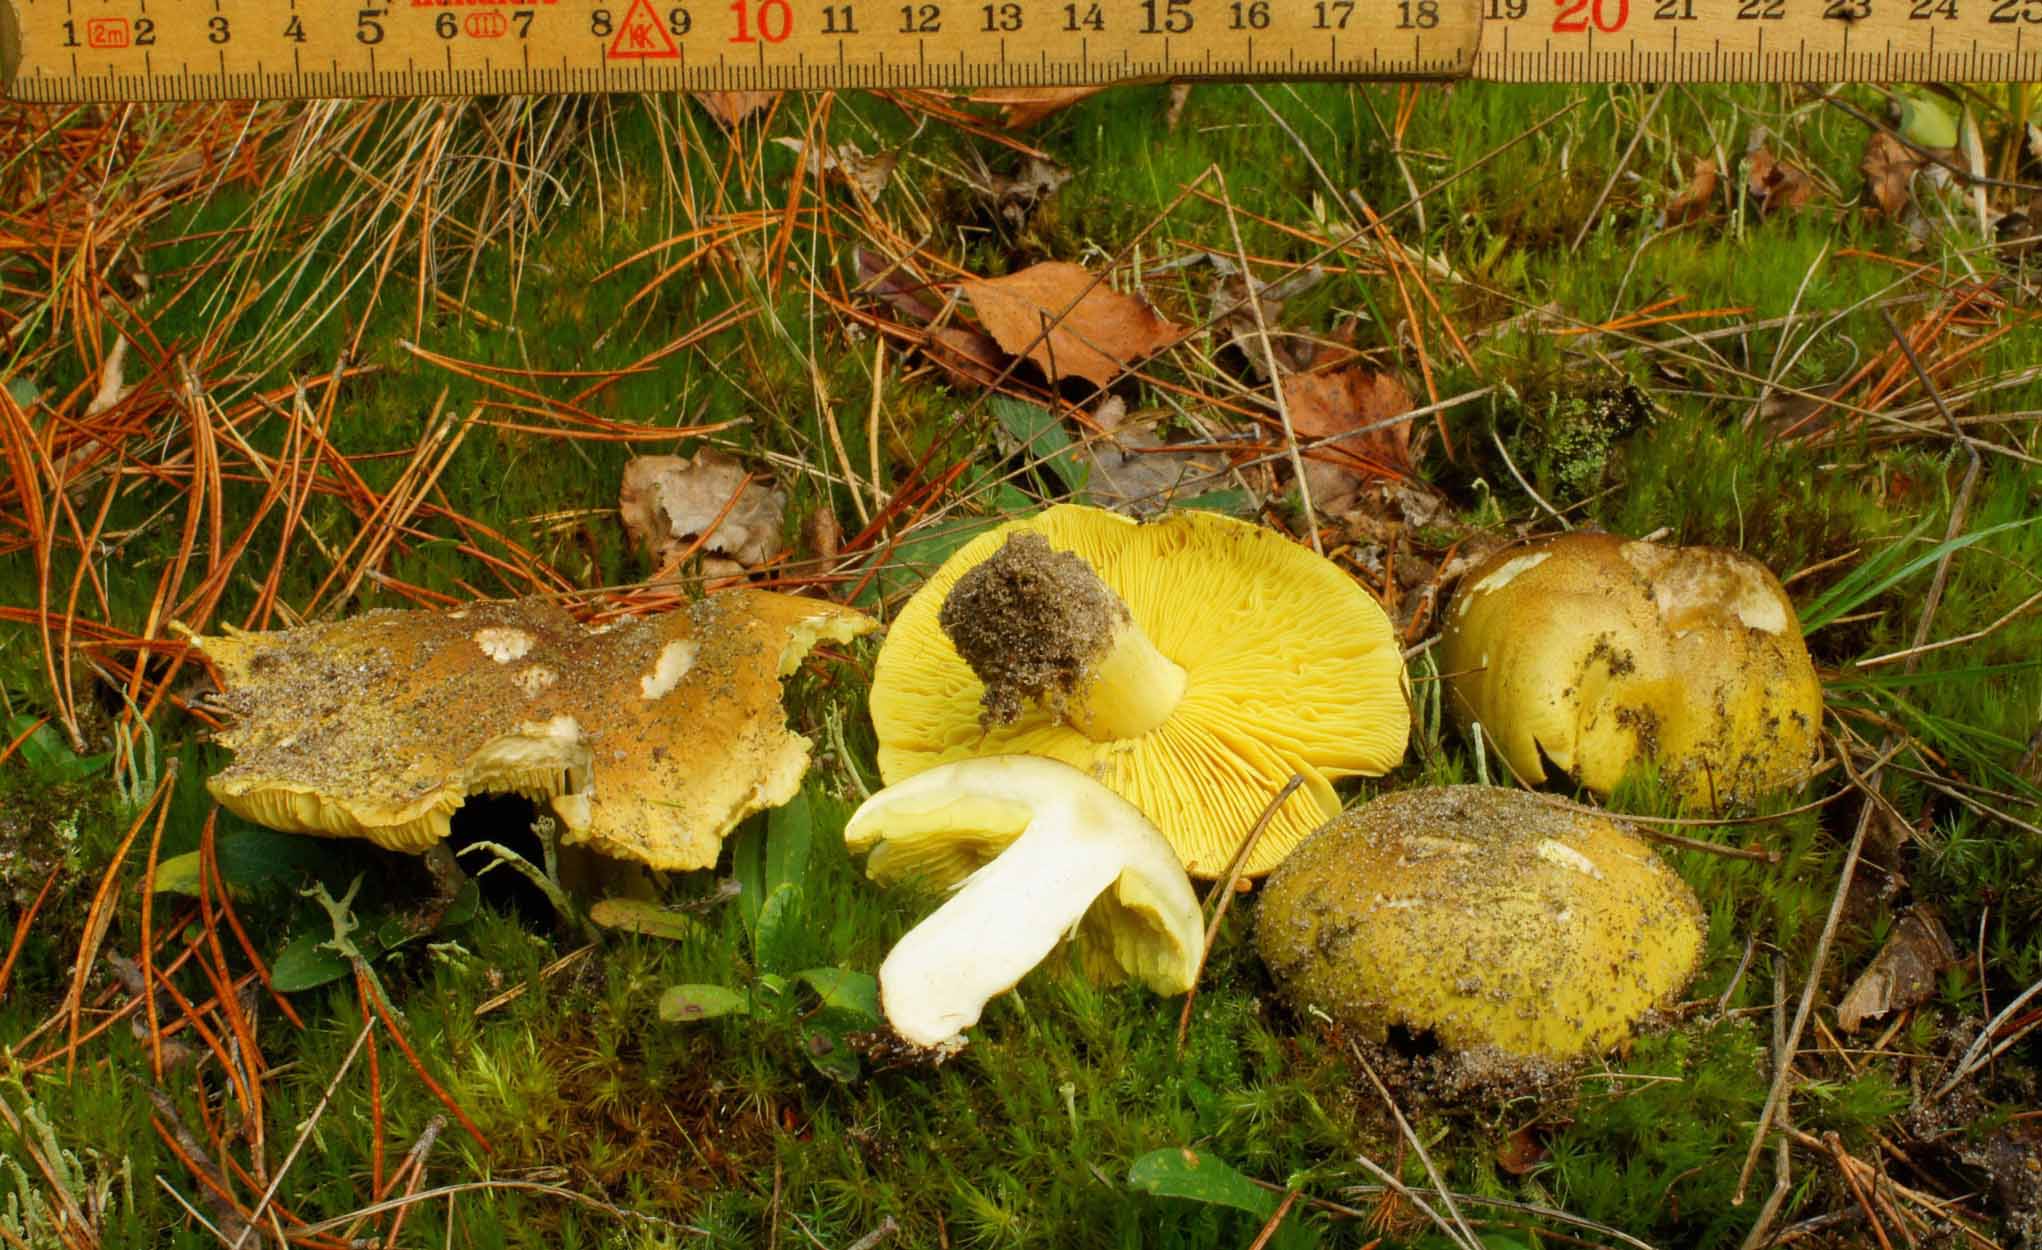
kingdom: Fungi
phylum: Basidiomycota
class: Agaricomycetes
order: Agaricales
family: Tricholomataceae
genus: Tricholoma
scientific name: Tricholoma equestre
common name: ægte ridderhat
